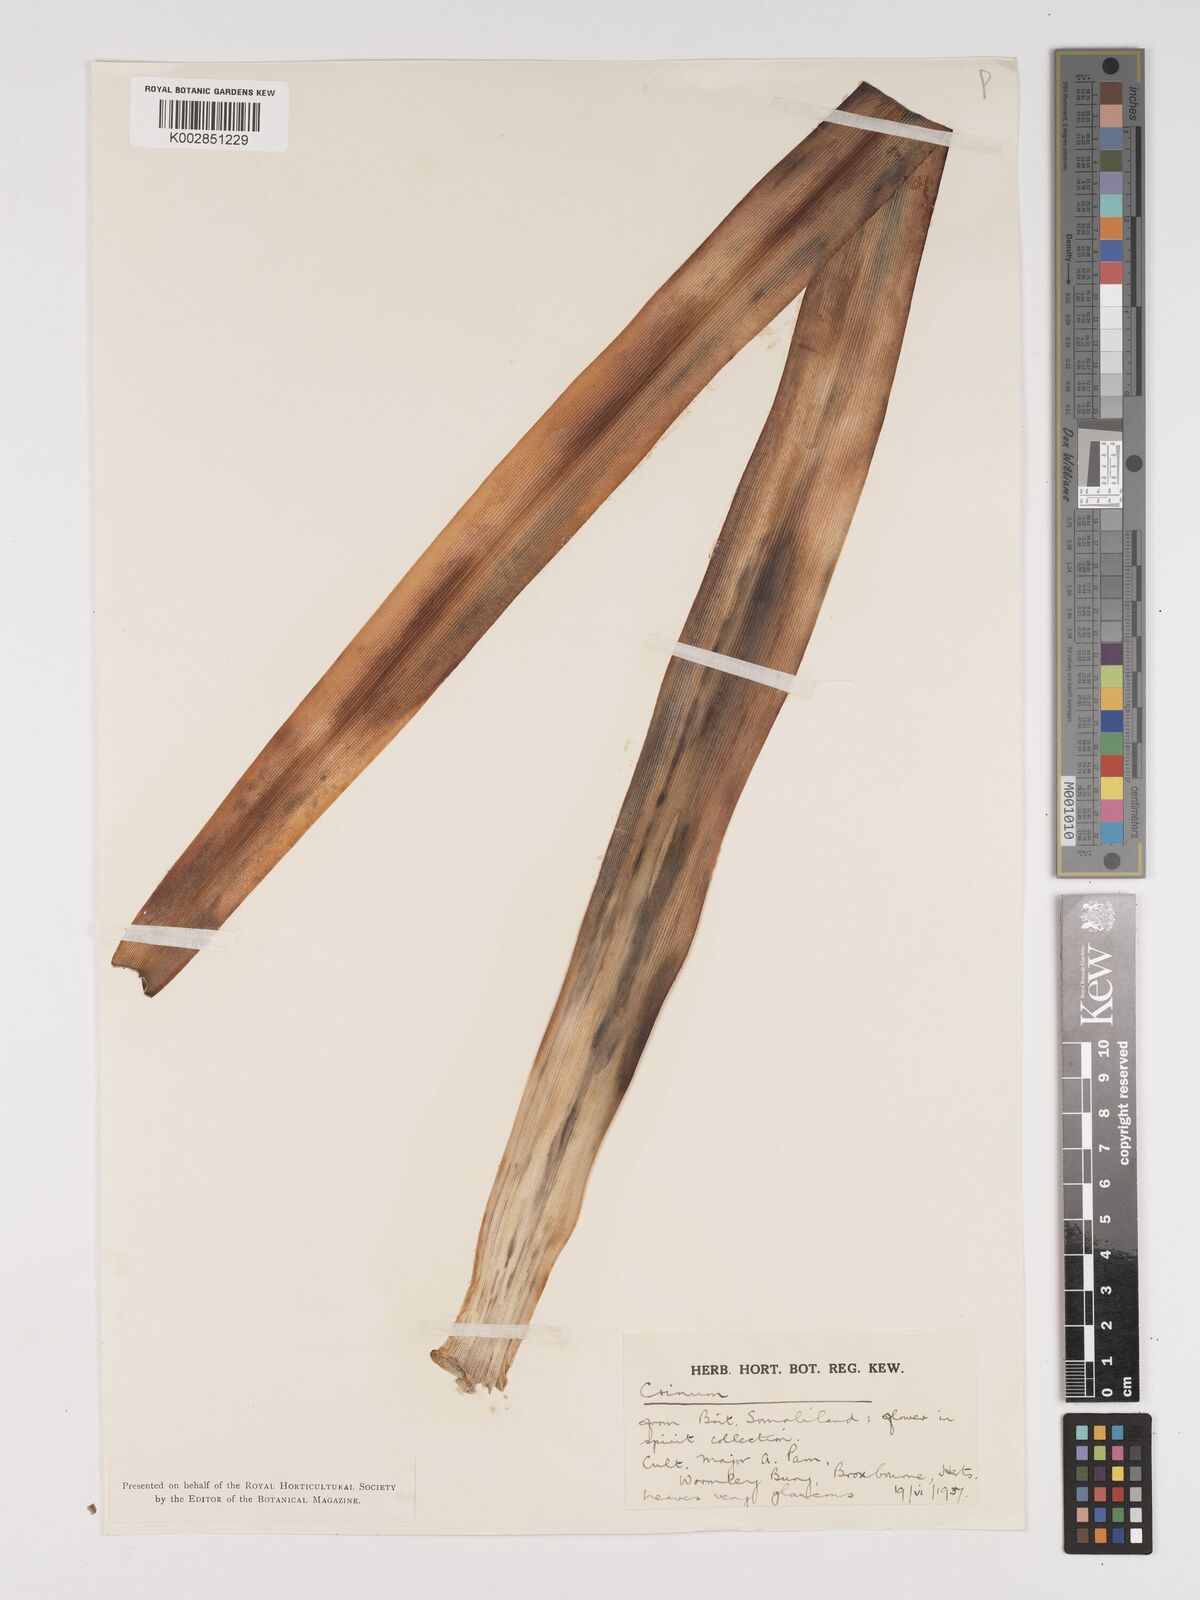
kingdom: Plantae
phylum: Tracheophyta
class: Liliopsida
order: Asparagales
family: Amaryllidaceae
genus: Crinum
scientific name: Crinum abyssinicum
